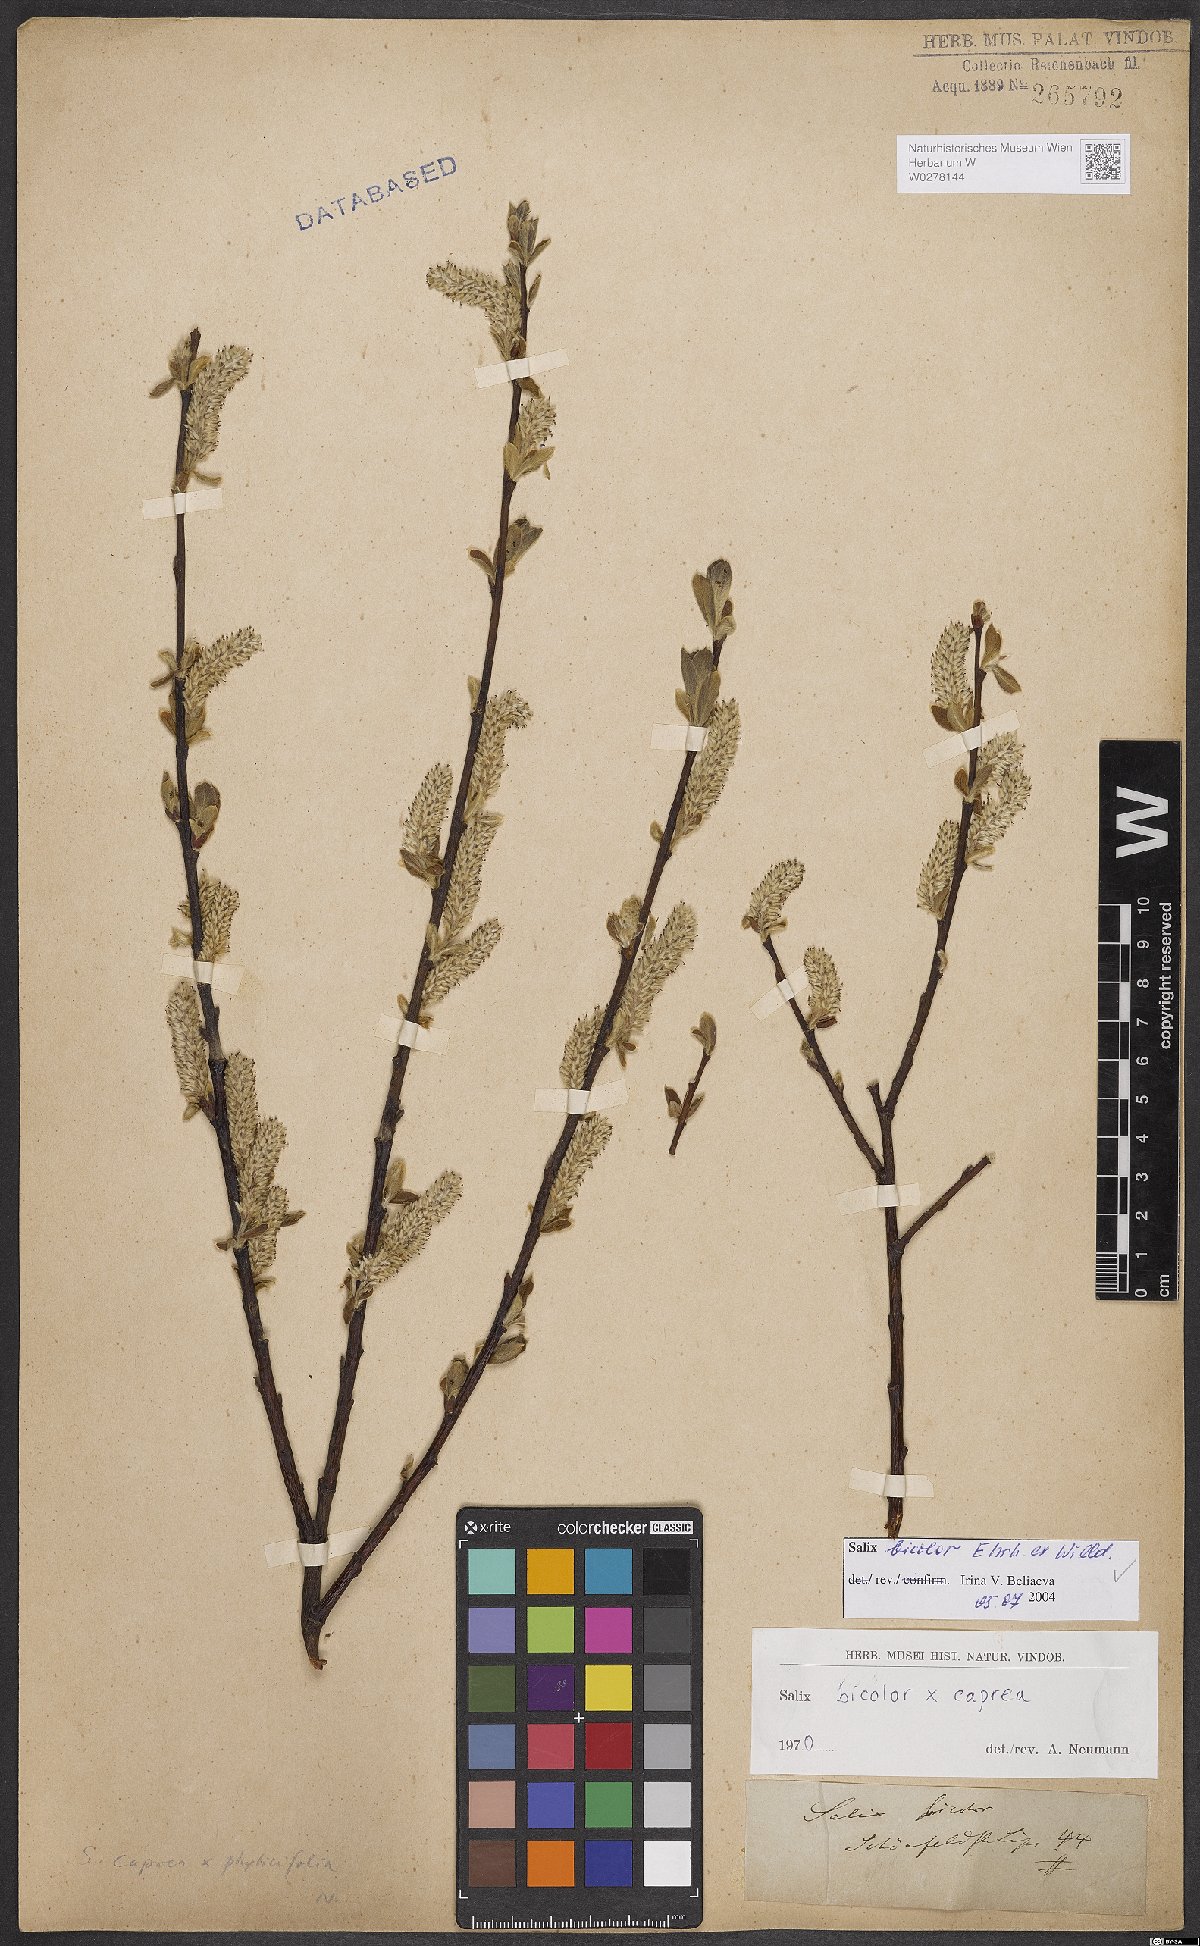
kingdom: Plantae
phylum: Tracheophyta
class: Magnoliopsida
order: Malpighiales
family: Salicaceae
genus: Salix
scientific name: Salix bicolor
